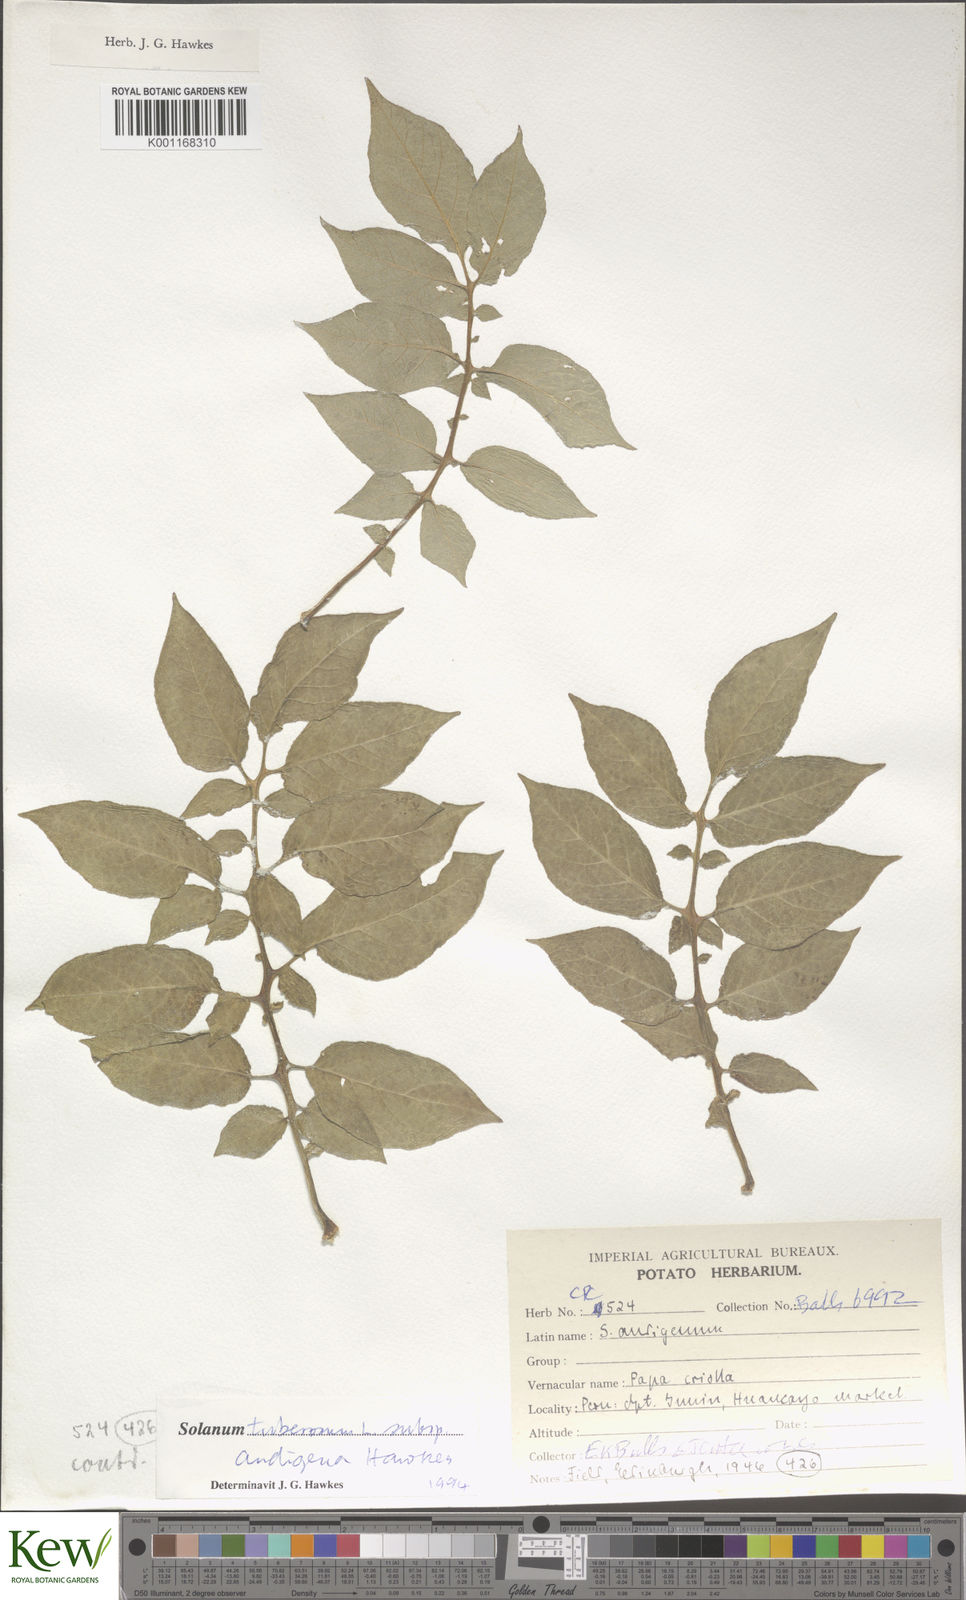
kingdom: Plantae
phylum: Tracheophyta
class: Magnoliopsida
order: Solanales
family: Solanaceae
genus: Solanum
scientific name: Solanum tuberosum
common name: Potato
